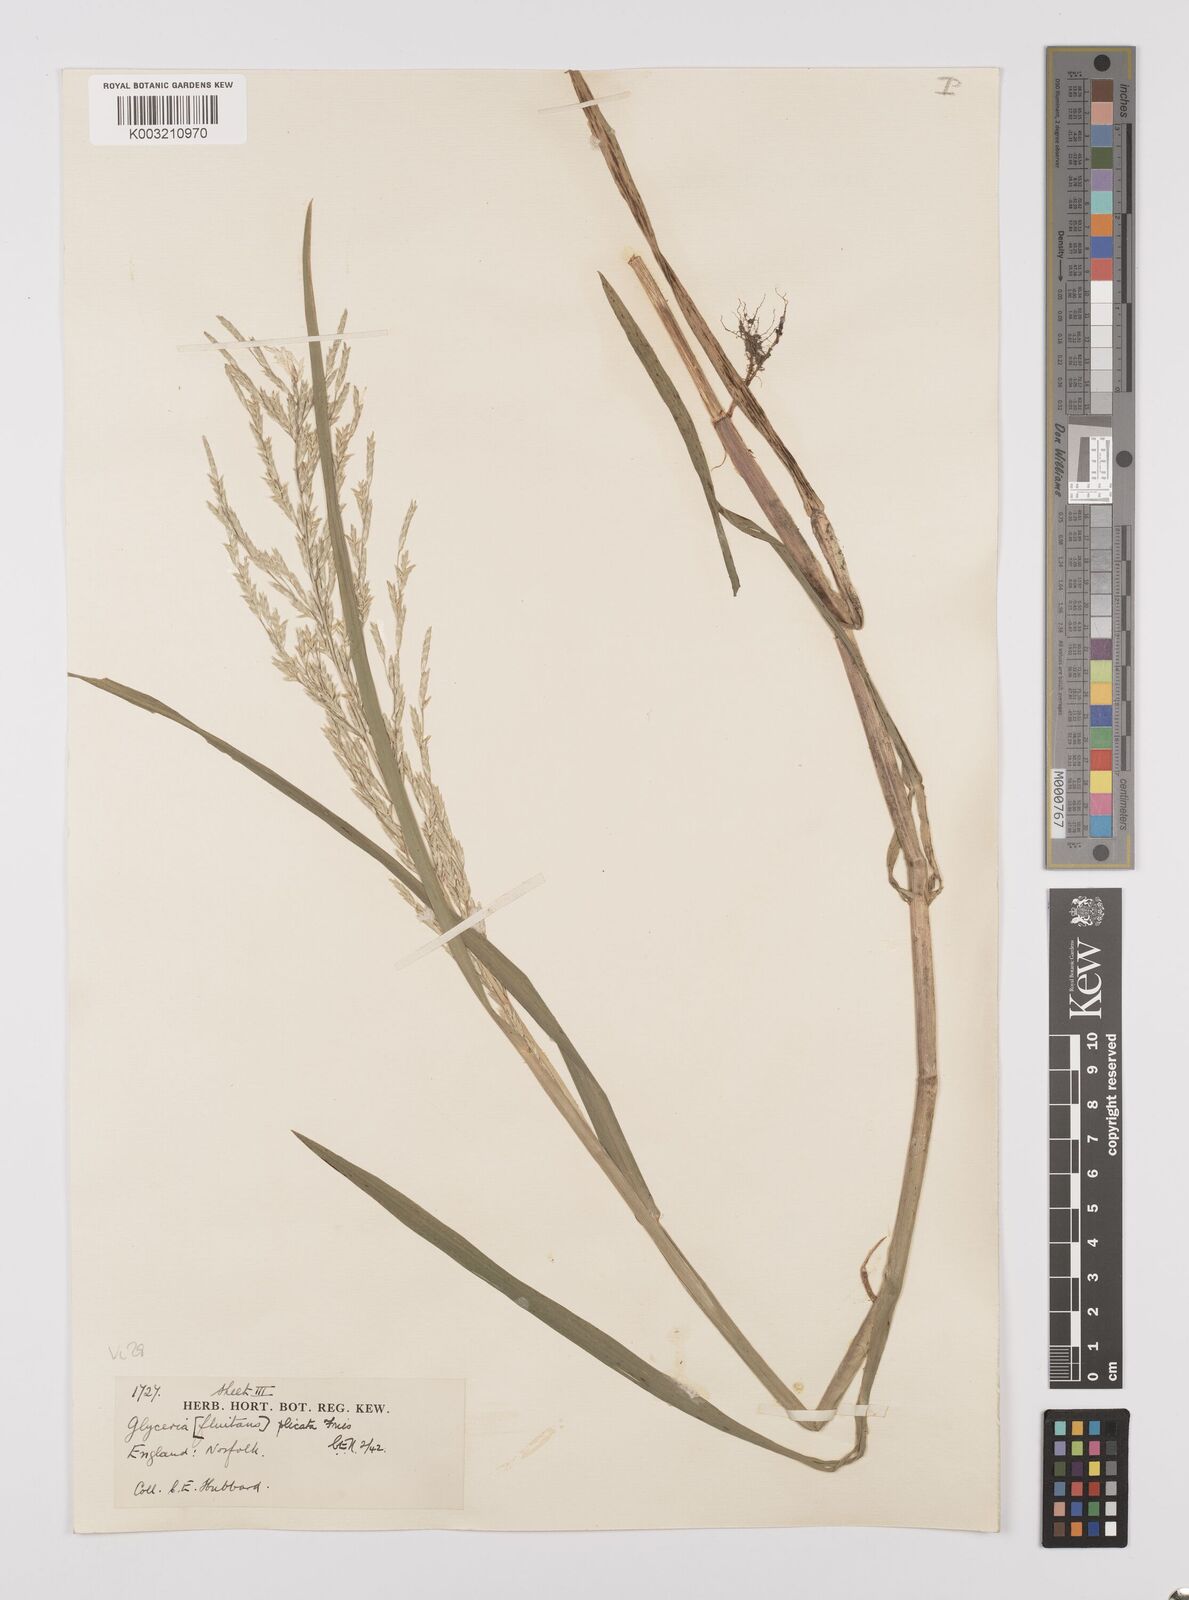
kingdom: Plantae
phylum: Tracheophyta
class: Liliopsida
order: Poales
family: Poaceae
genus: Glyceria
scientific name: Glyceria notata
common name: Plicate sweet-grass
